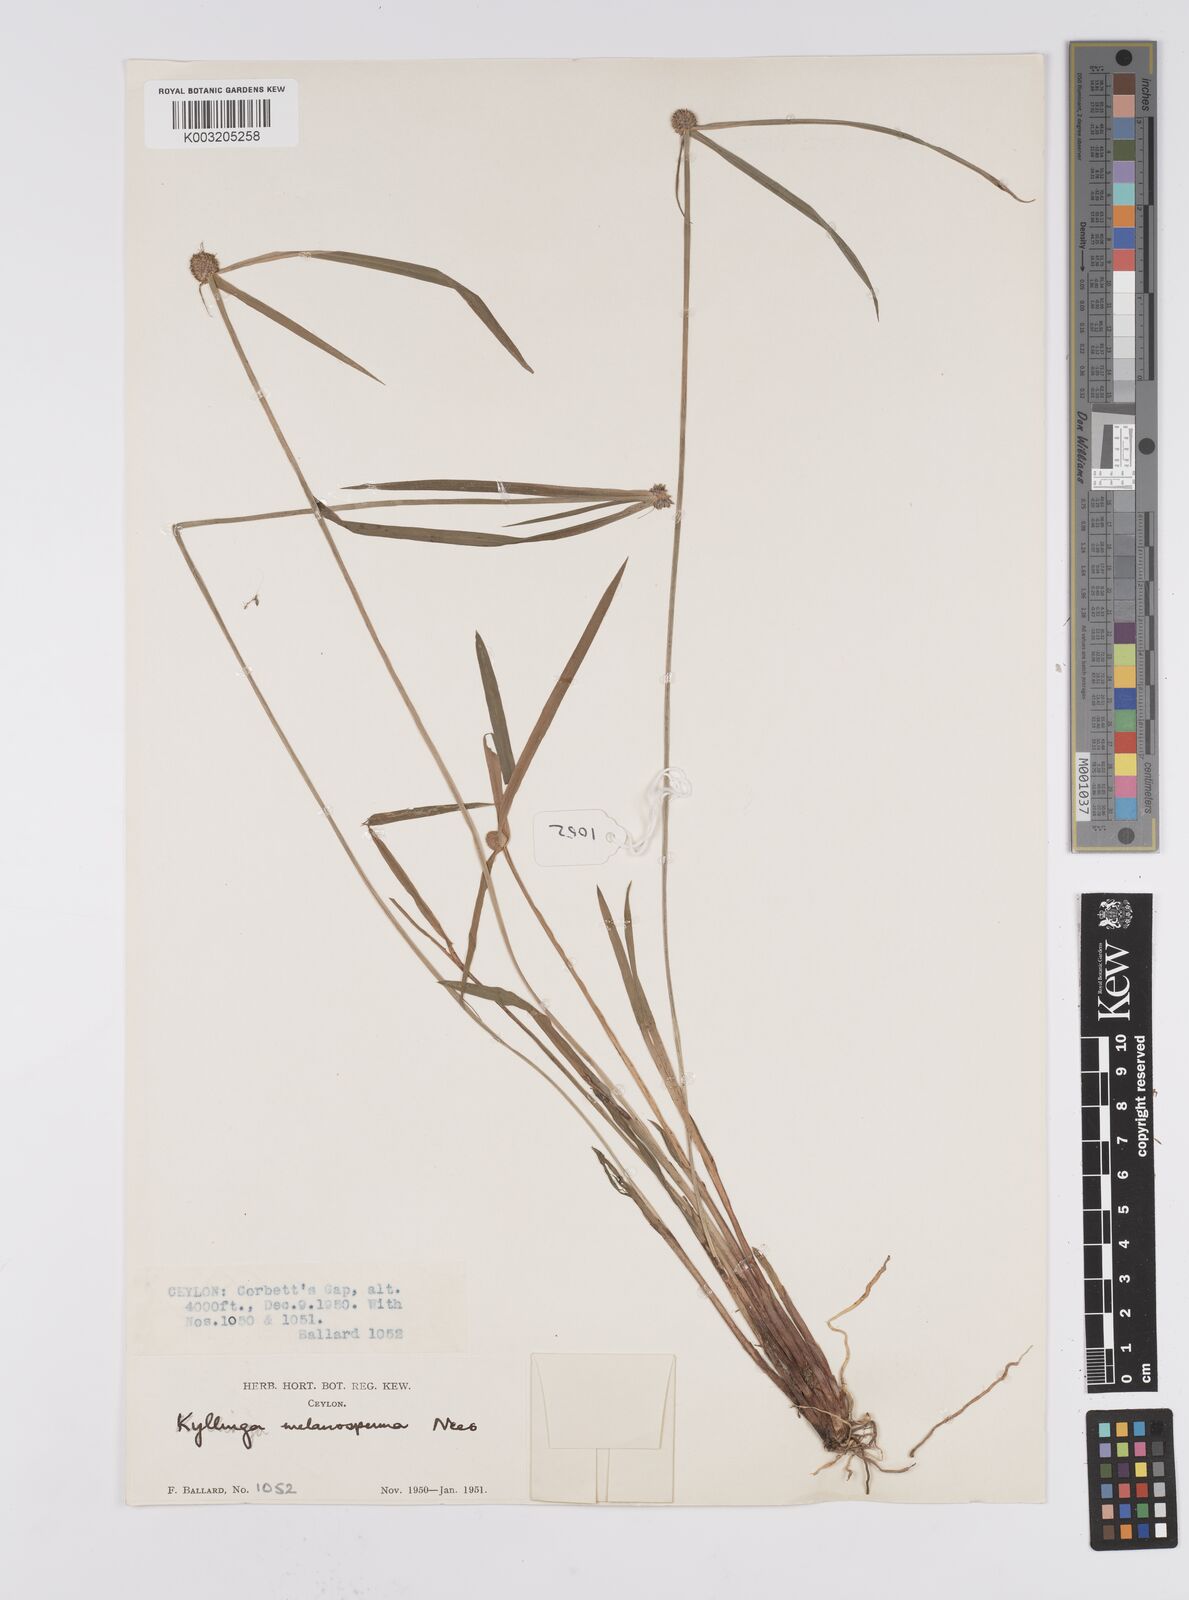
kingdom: Plantae
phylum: Tracheophyta
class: Liliopsida
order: Poales
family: Cyperaceae
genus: Cyperus
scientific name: Cyperus melanospermus
